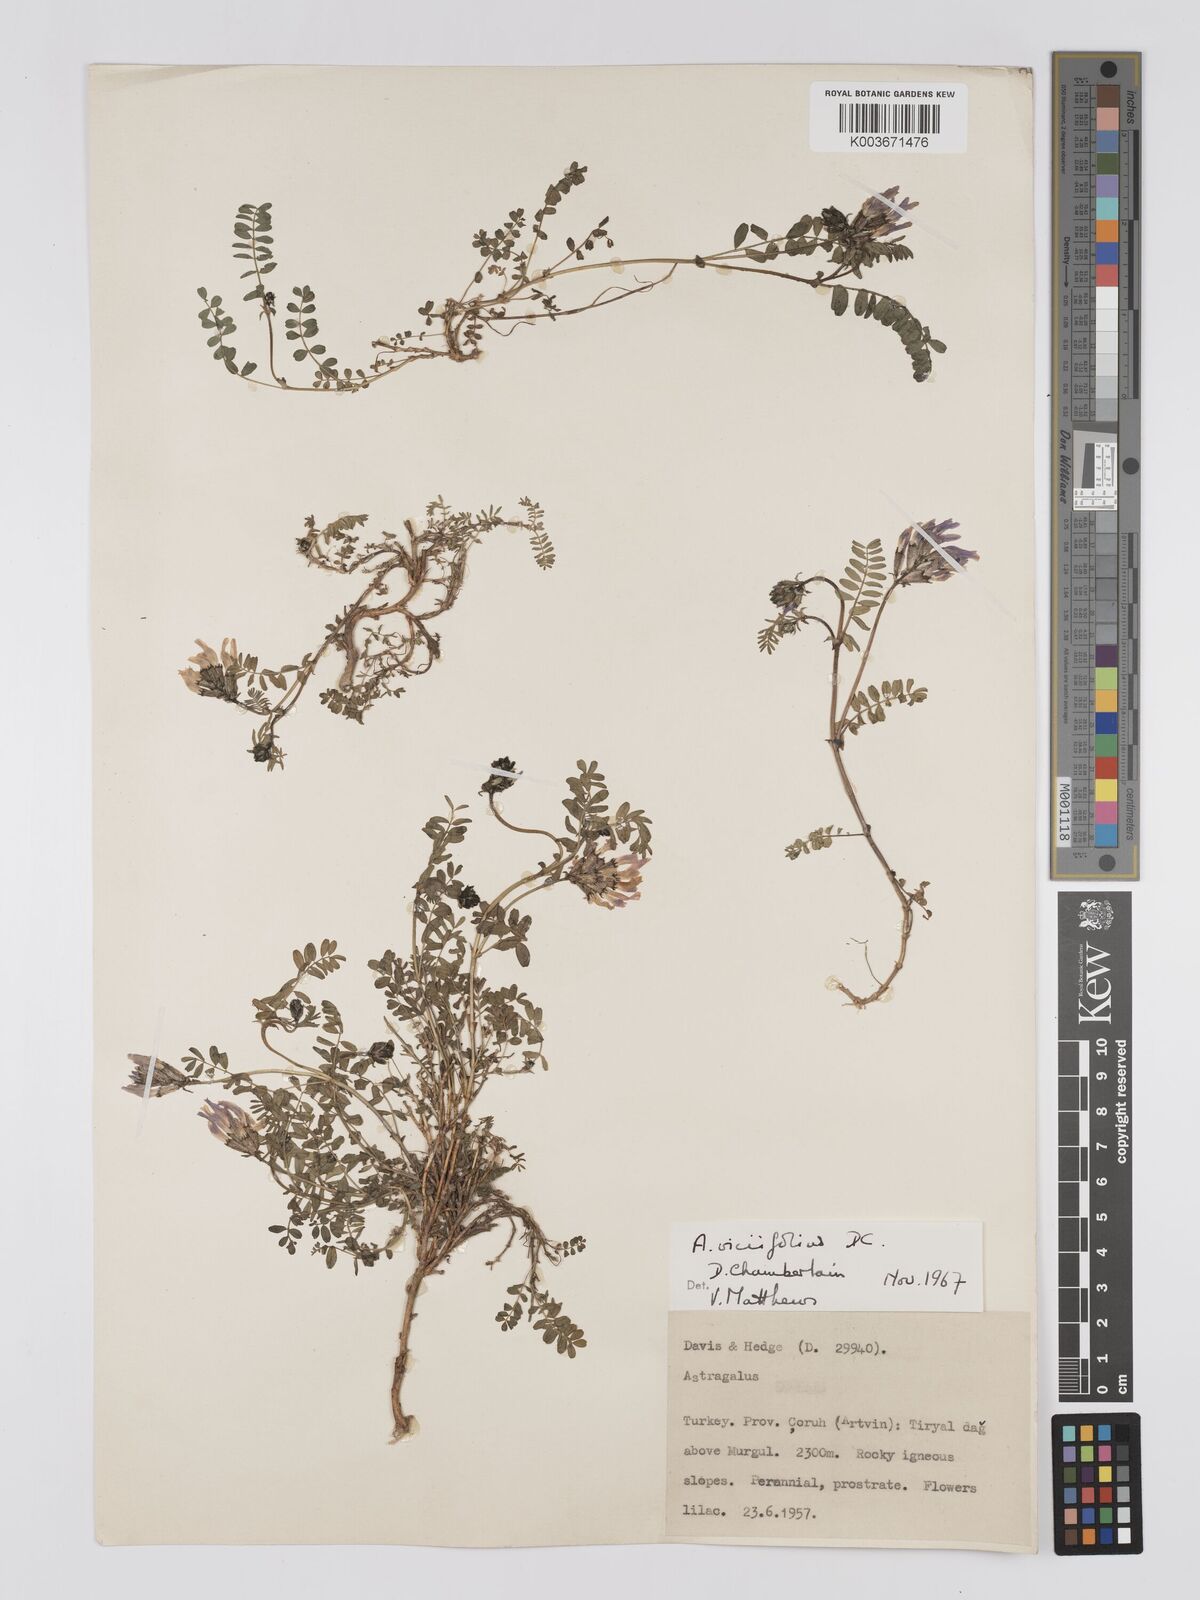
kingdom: Plantae
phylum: Tracheophyta
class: Magnoliopsida
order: Fabales
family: Fabaceae
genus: Astragalus
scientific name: Astragalus humifusus
